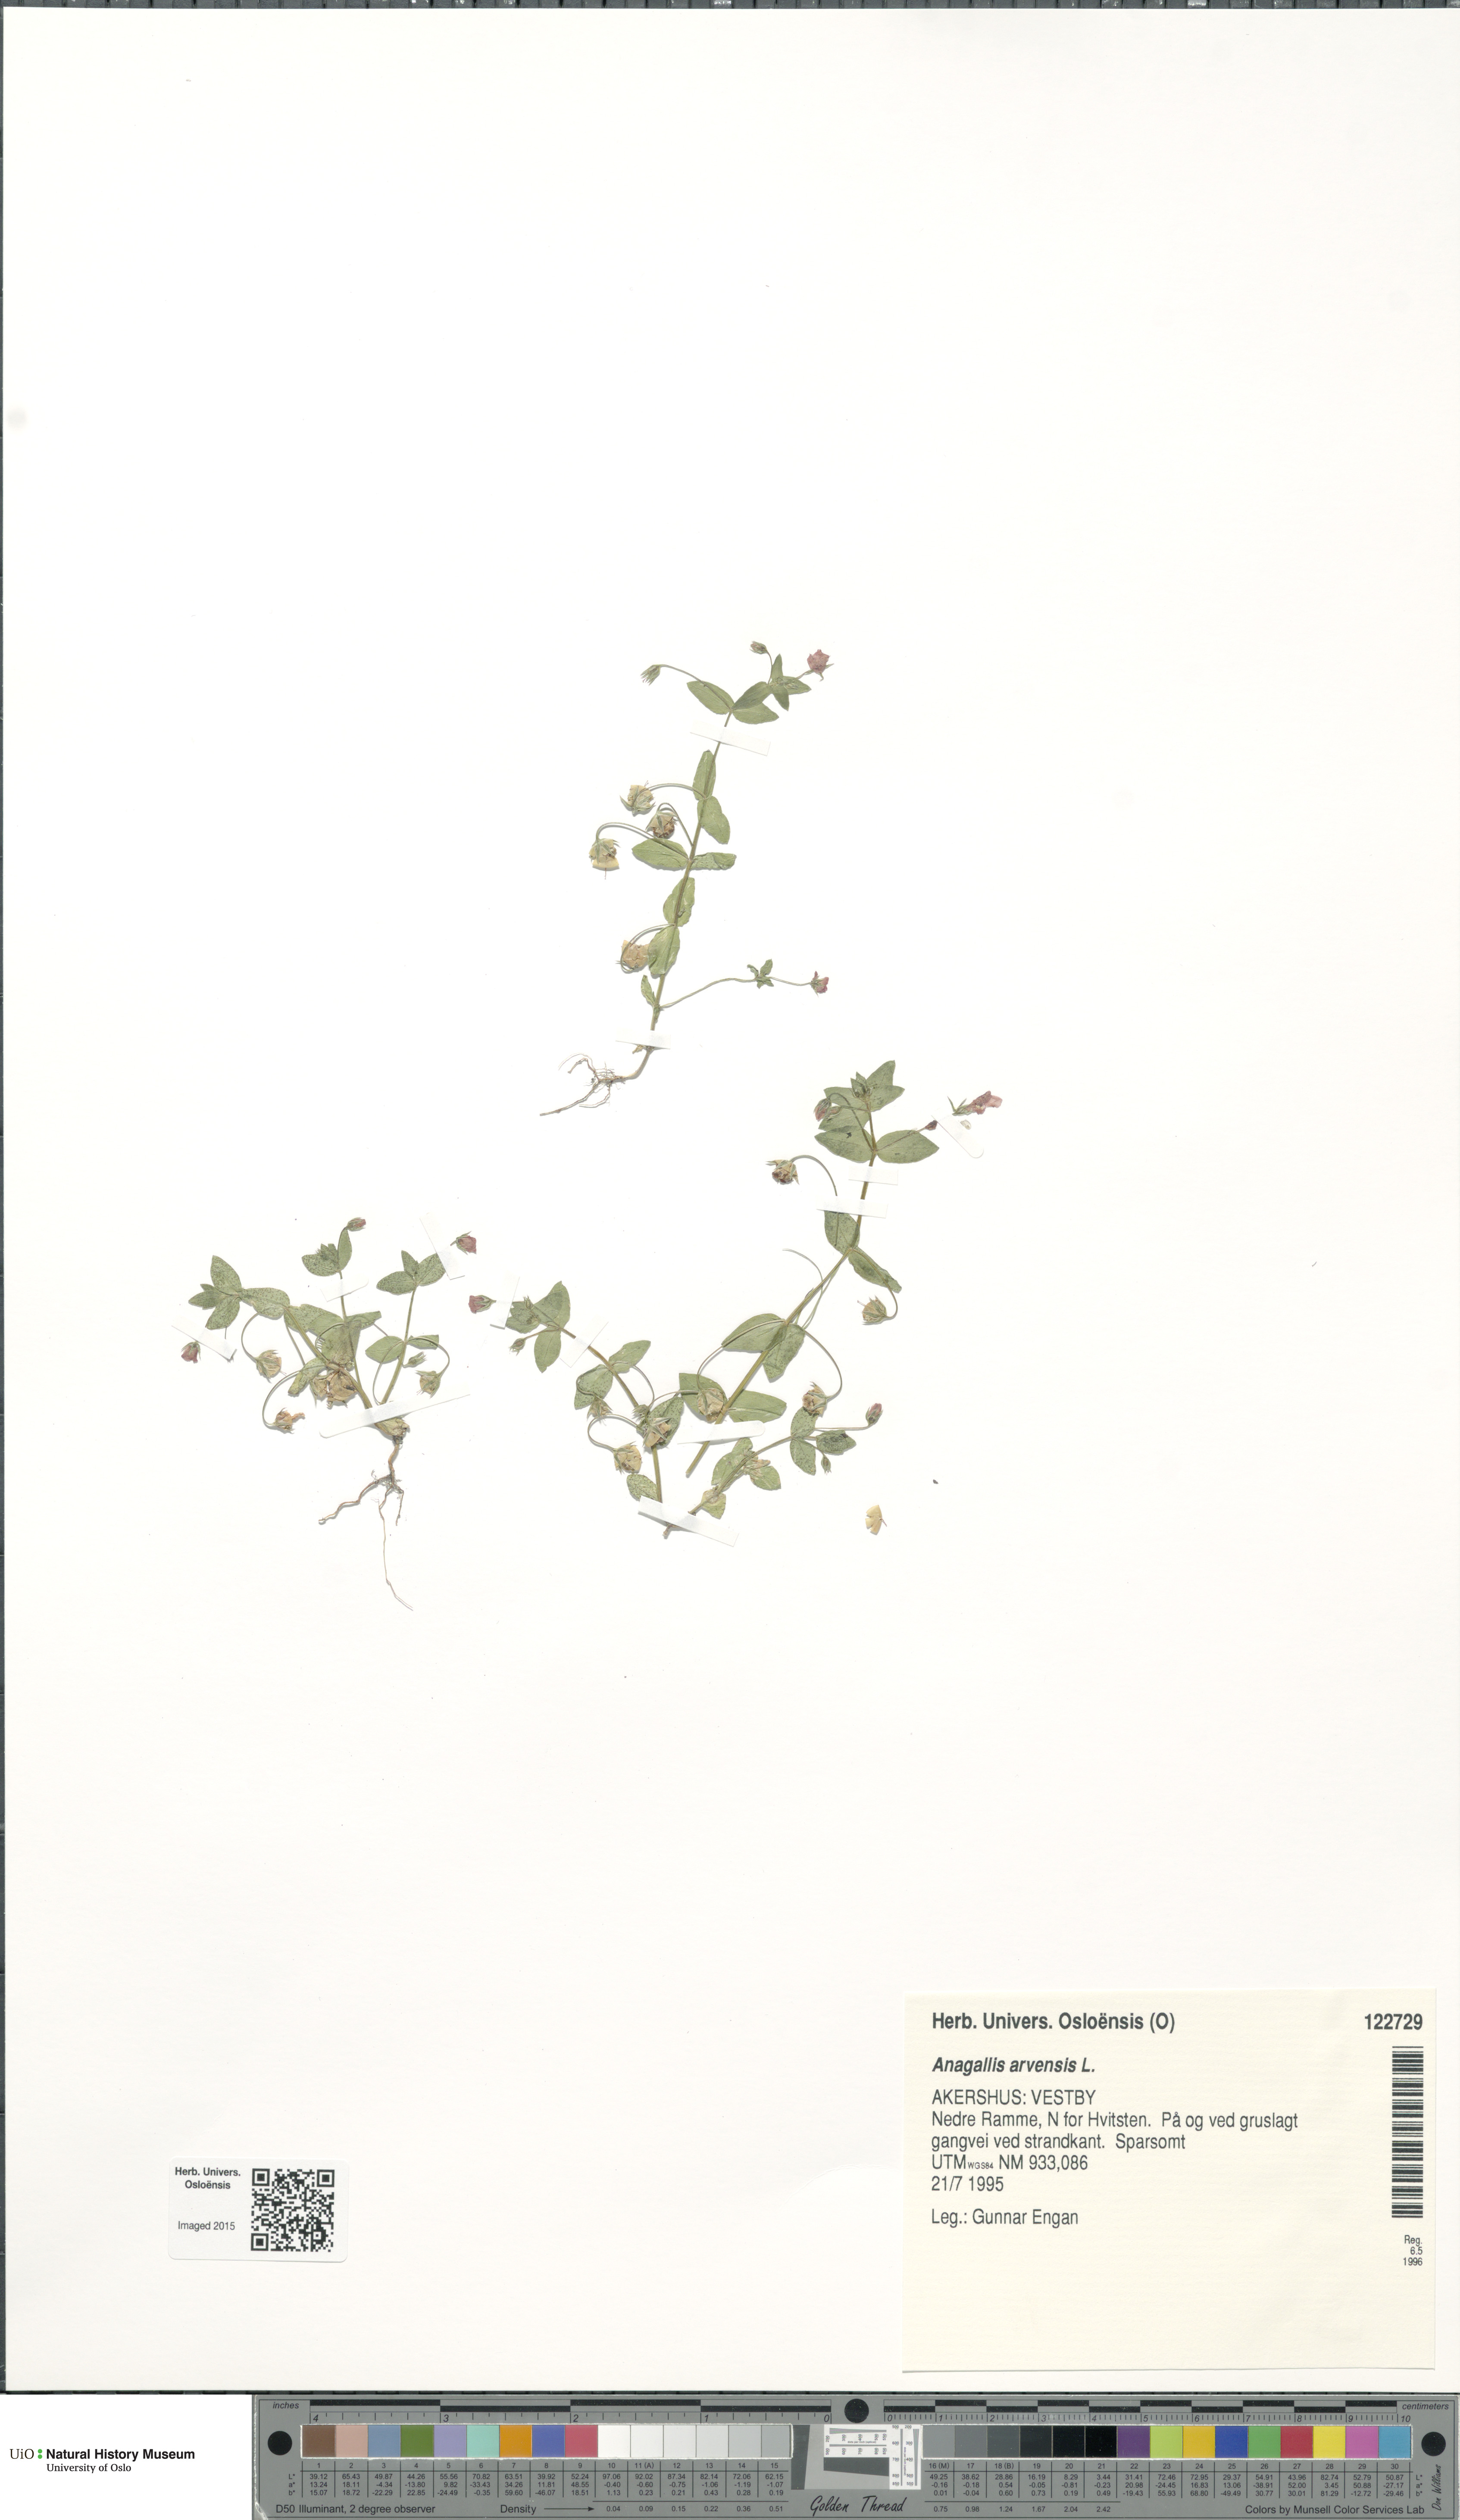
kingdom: Plantae
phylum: Tracheophyta
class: Magnoliopsida
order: Ericales
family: Primulaceae
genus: Lysimachia
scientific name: Lysimachia arvensis
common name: Scarlet pimpernel
